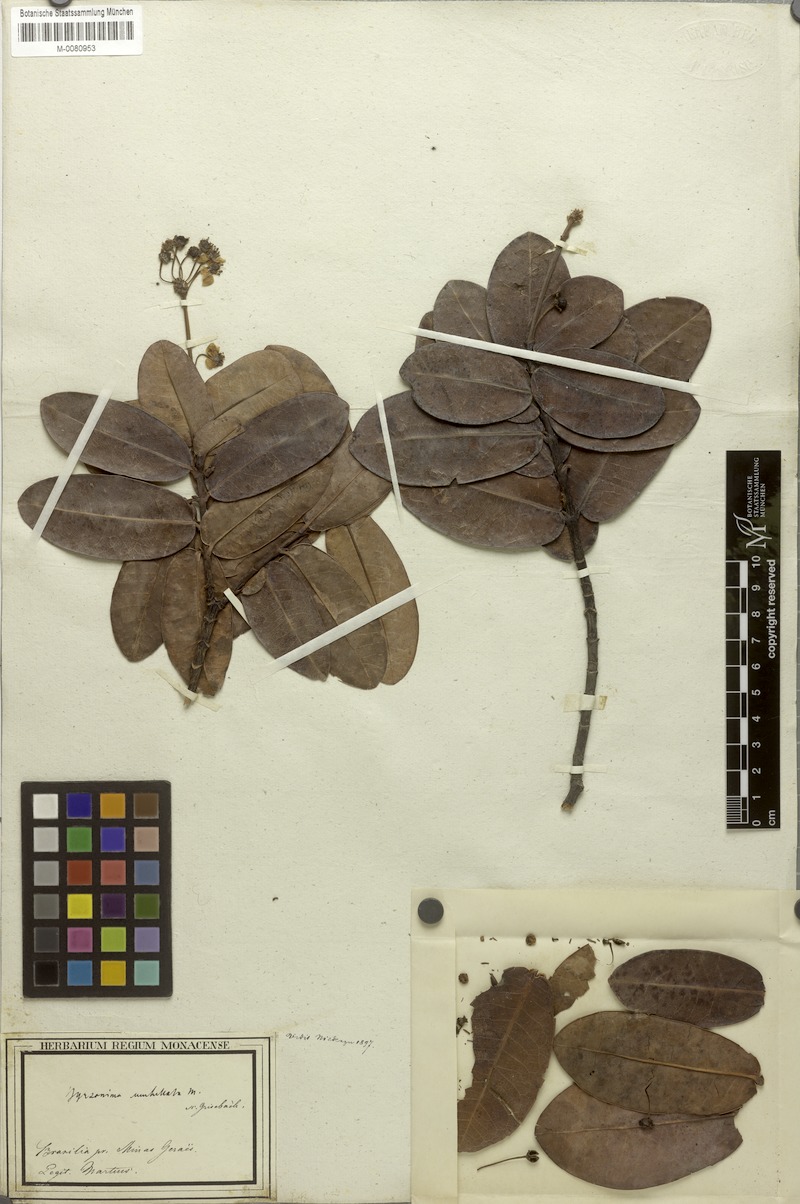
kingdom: Plantae
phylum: Tracheophyta
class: Magnoliopsida
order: Malpighiales
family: Malpighiaceae
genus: Byrsonima
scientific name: Byrsonima umbellata
